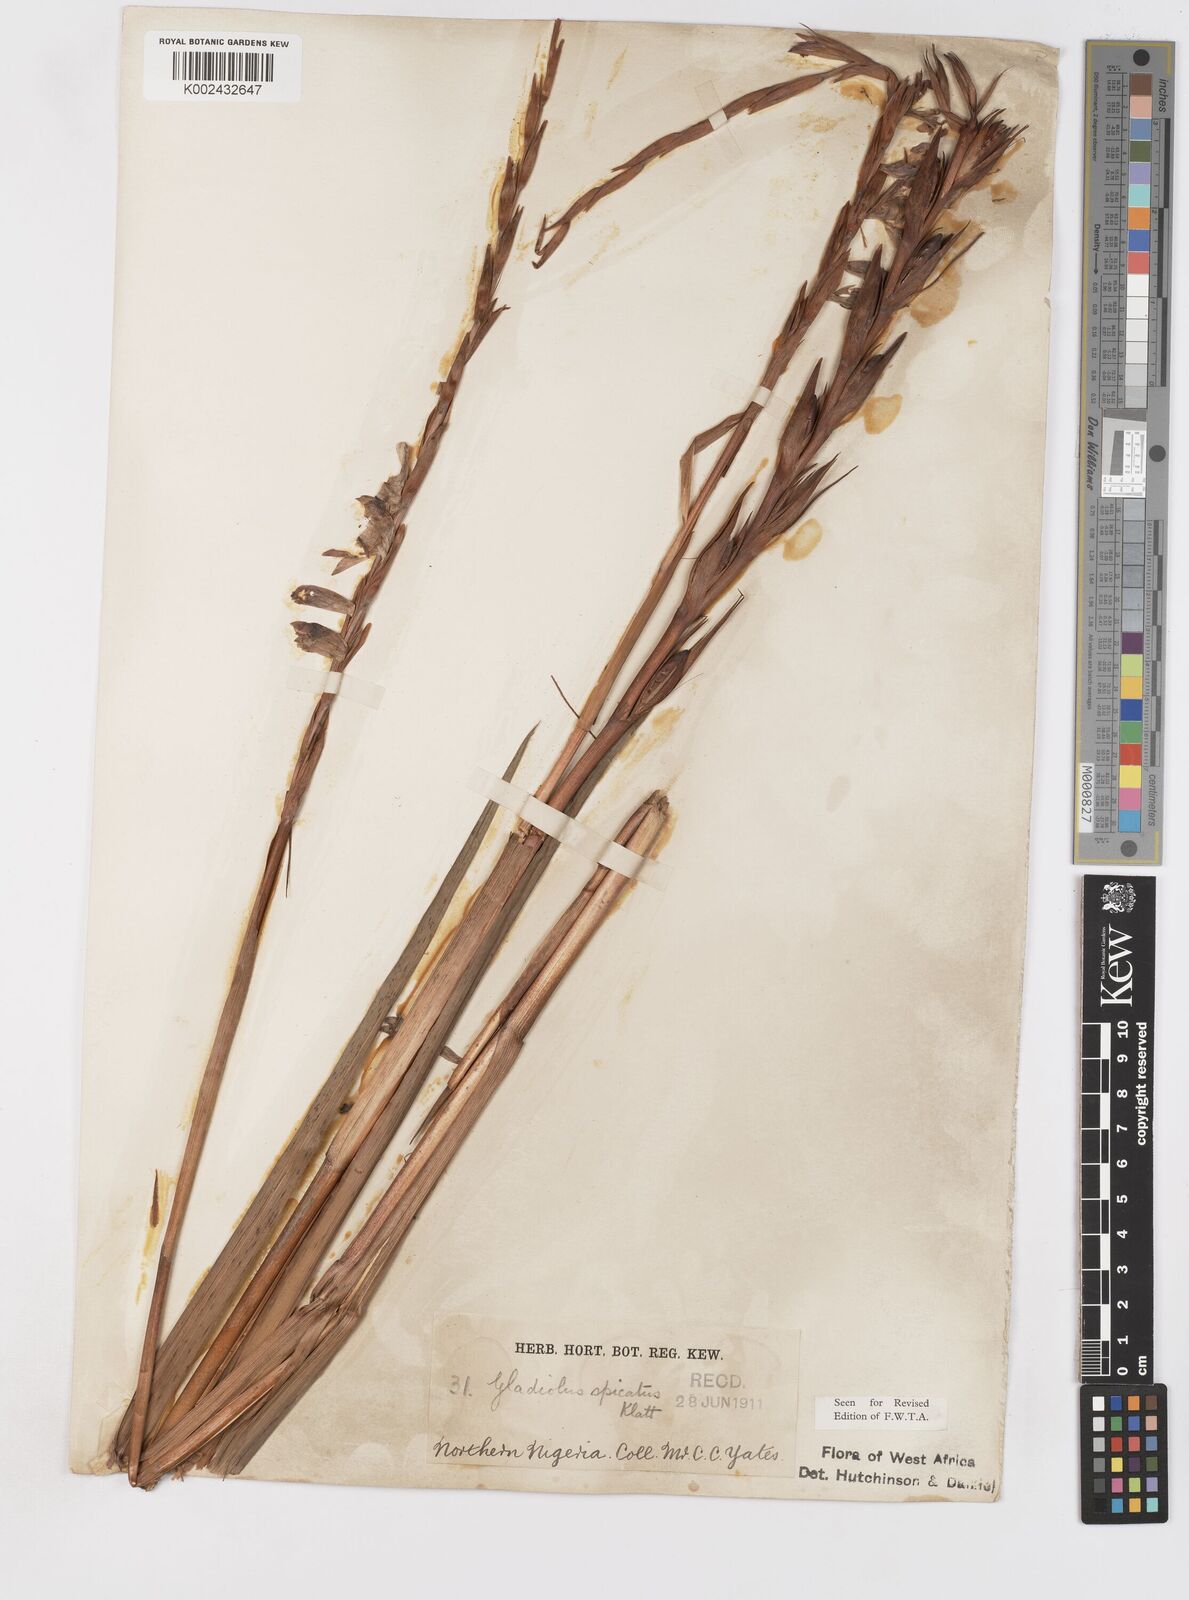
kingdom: Plantae
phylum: Tracheophyta
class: Liliopsida
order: Asparagales
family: Iridaceae
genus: Gladiolus
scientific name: Gladiolus gregarius
